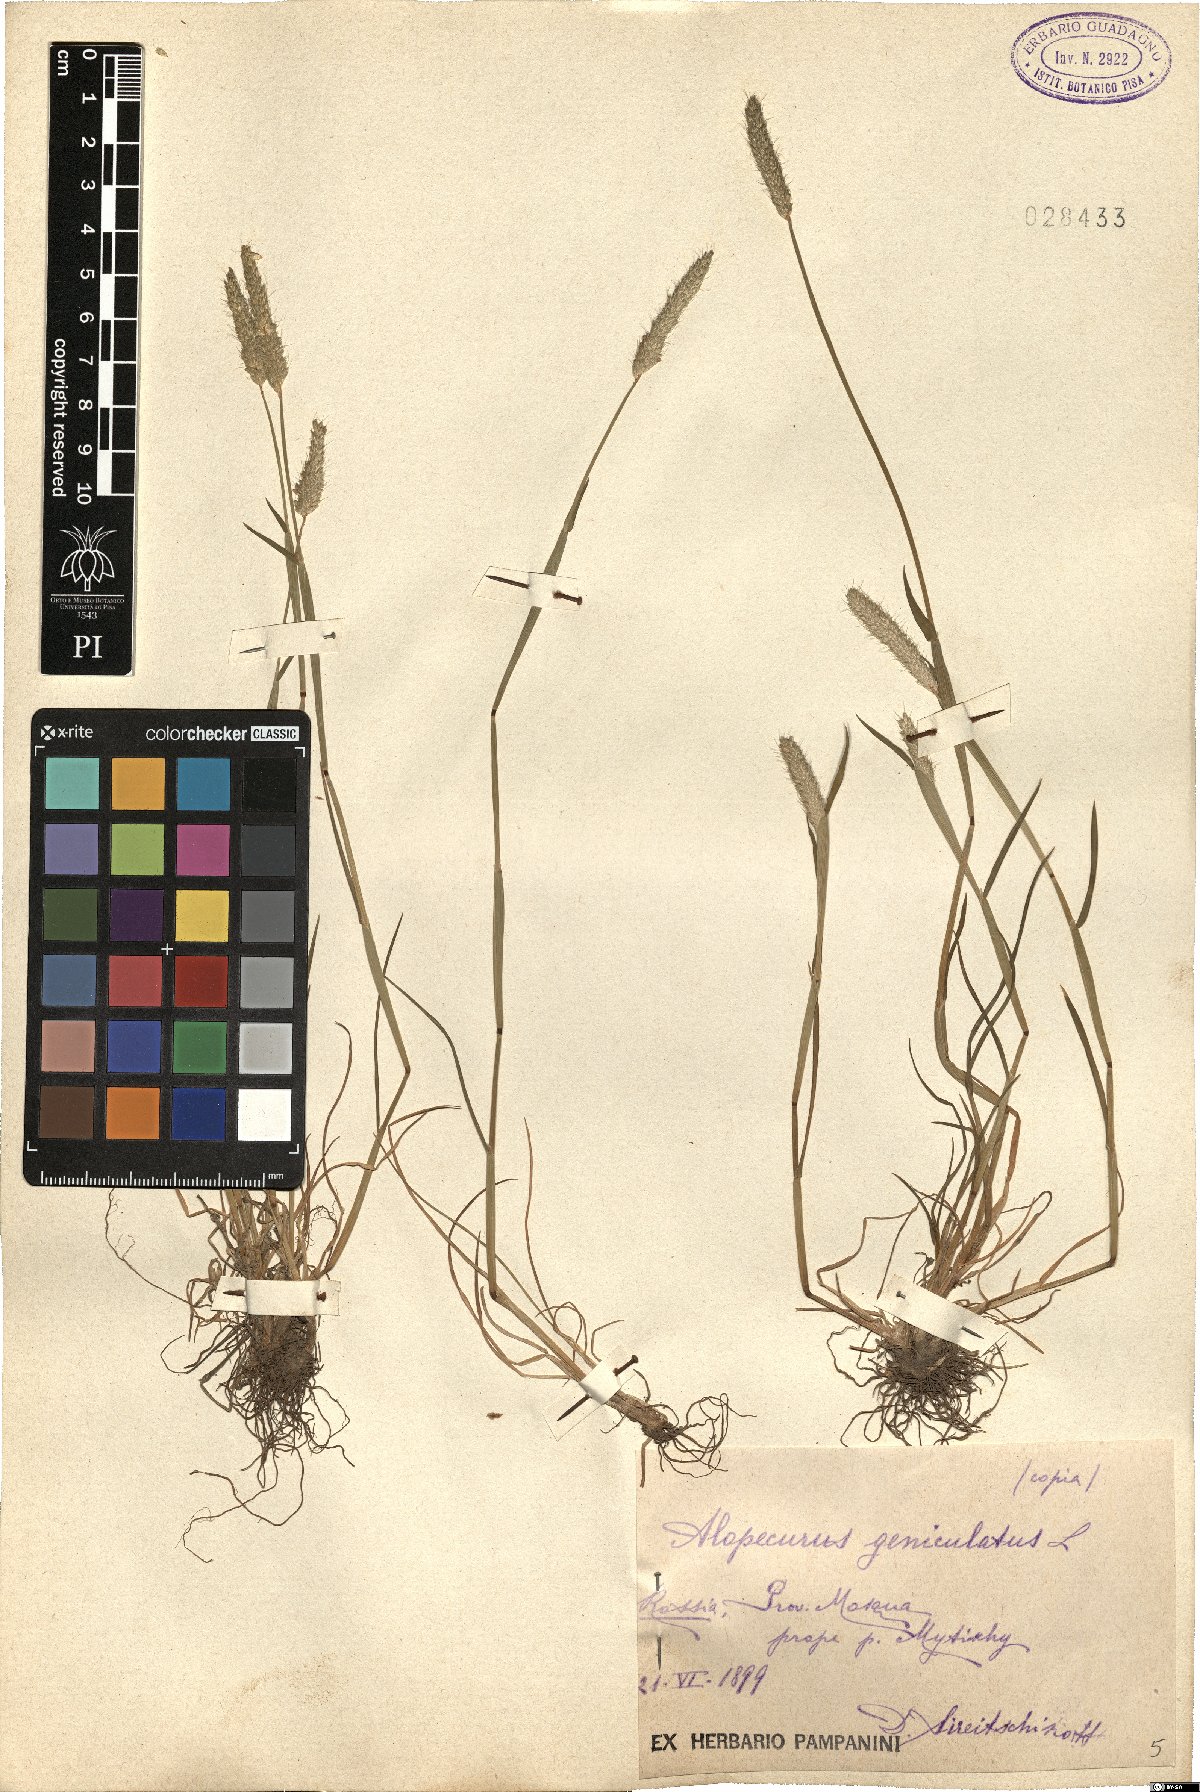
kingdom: Plantae
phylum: Tracheophyta
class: Liliopsida
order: Poales
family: Poaceae
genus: Alopecurus
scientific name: Alopecurus geniculatus
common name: Water foxtail
